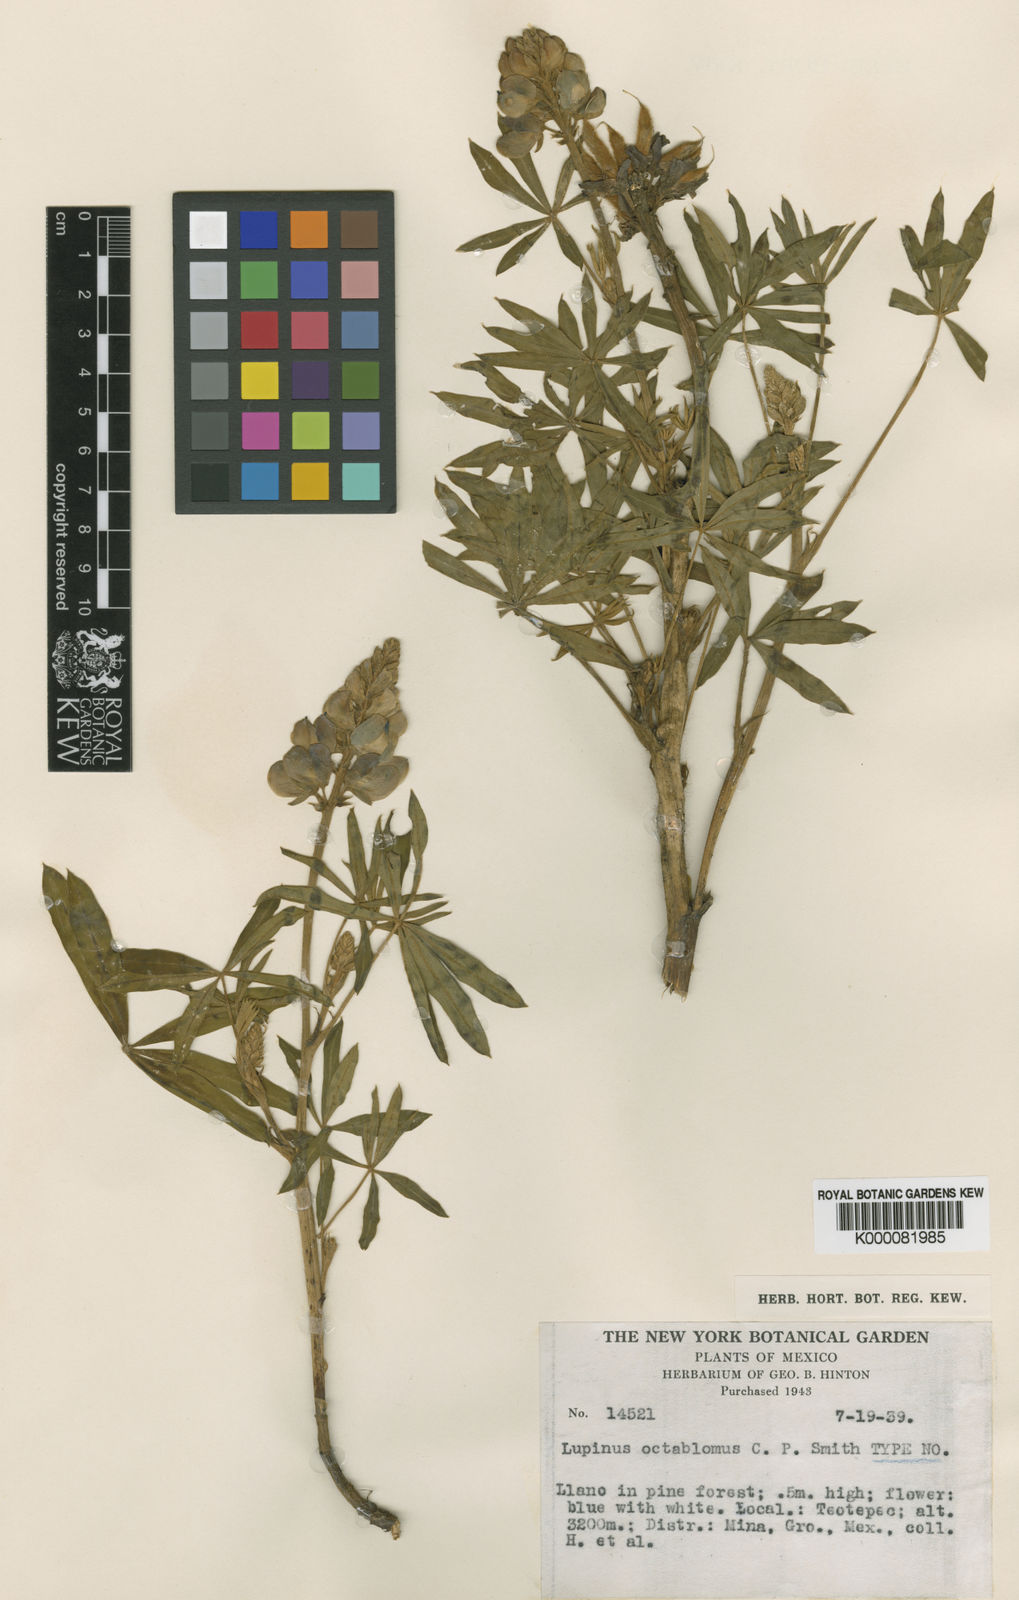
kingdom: Plantae
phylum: Tracheophyta
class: Magnoliopsida
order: Fabales
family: Fabaceae
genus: Lupinus
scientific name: Lupinus octablomus
